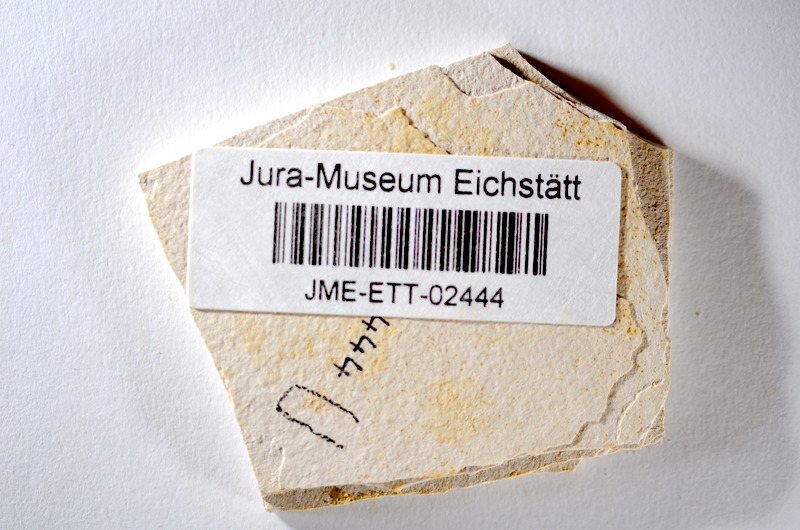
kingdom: Animalia
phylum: Chordata
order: Salmoniformes
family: Orthogonikleithridae
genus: Orthogonikleithrus
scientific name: Orthogonikleithrus hoelli
